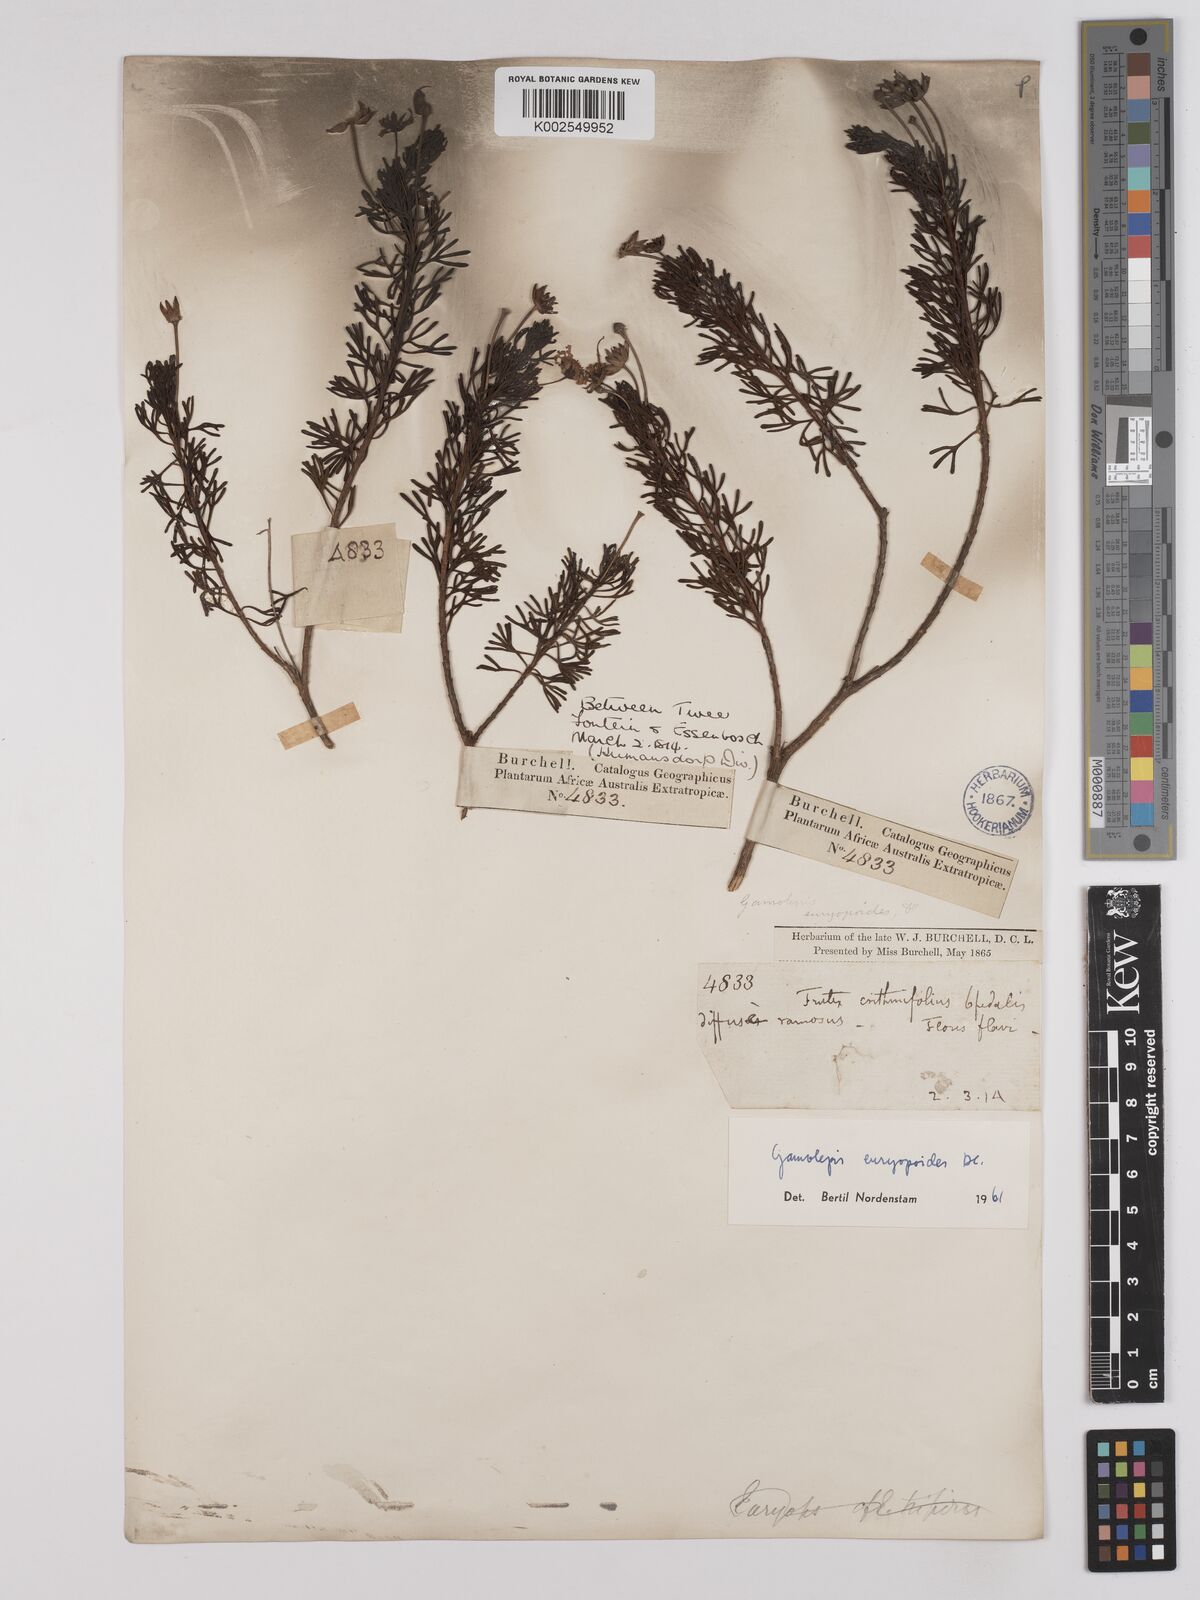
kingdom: Plantae
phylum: Tracheophyta
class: Magnoliopsida
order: Asterales
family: Asteraceae
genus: Euryops
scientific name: Euryops euryopoides
